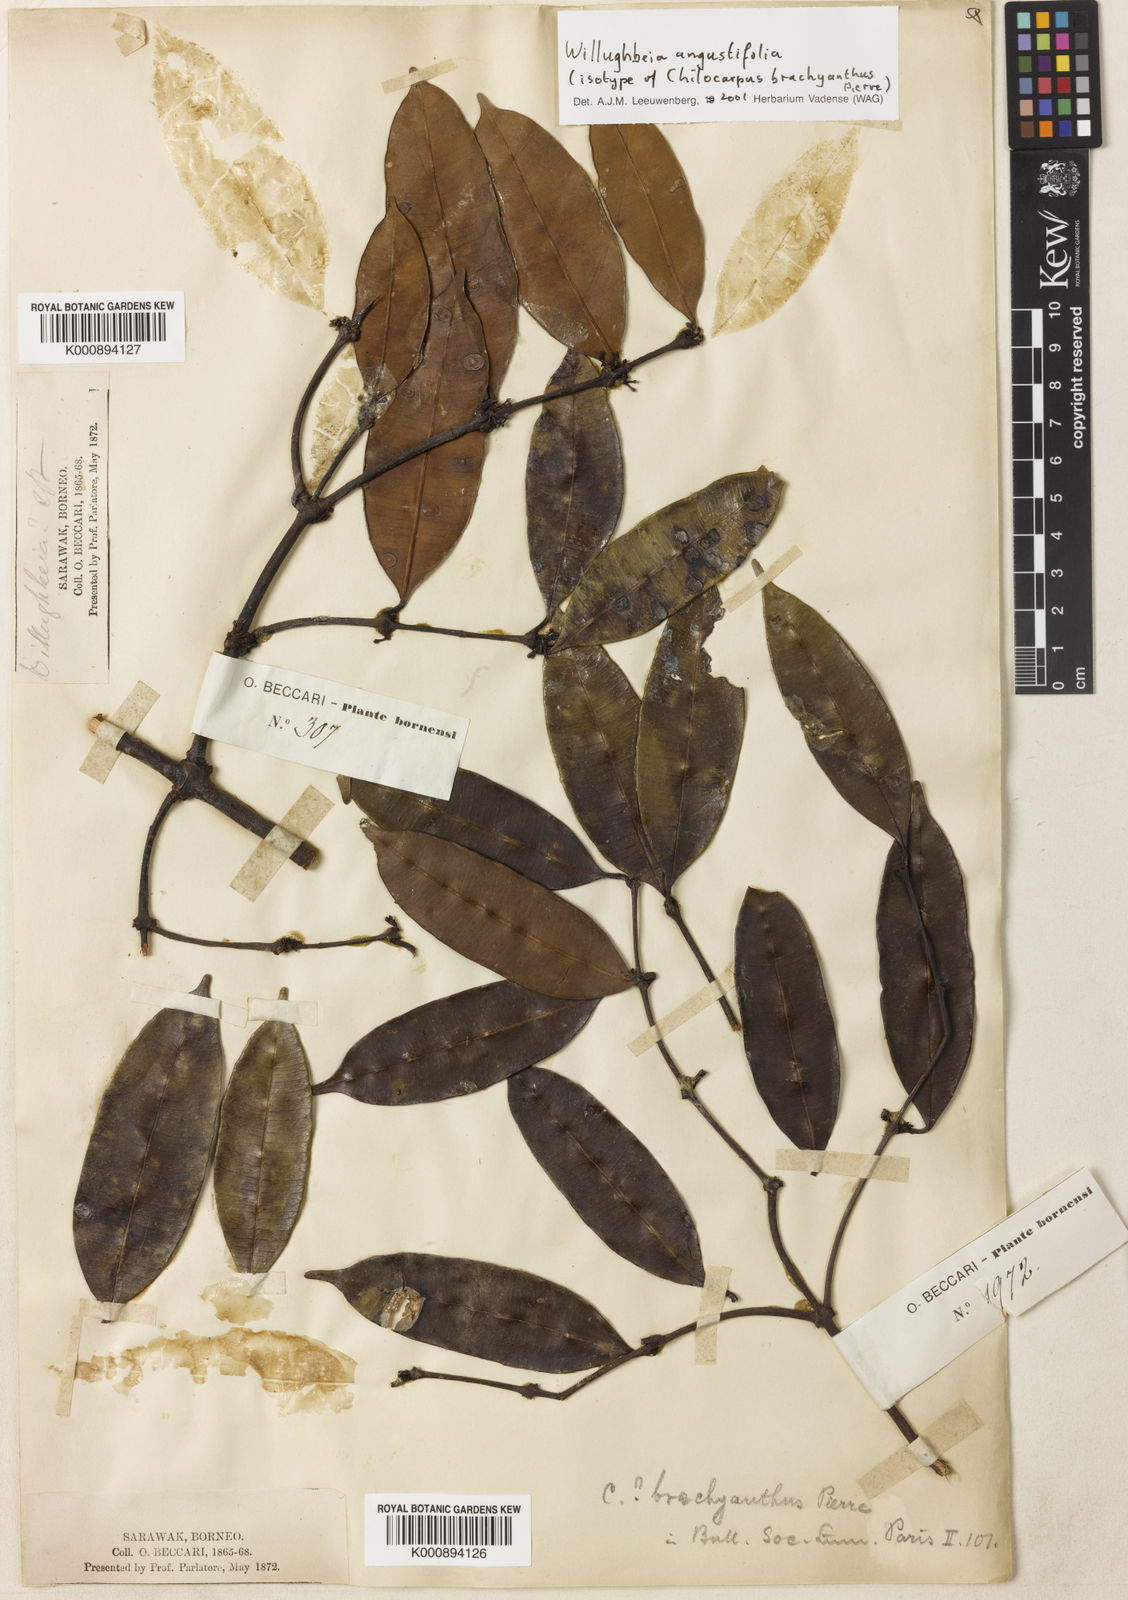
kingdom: Plantae
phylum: Tracheophyta
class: Magnoliopsida
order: Gentianales
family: Apocynaceae
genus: Willughbeia
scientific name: Willughbeia angustifolia
